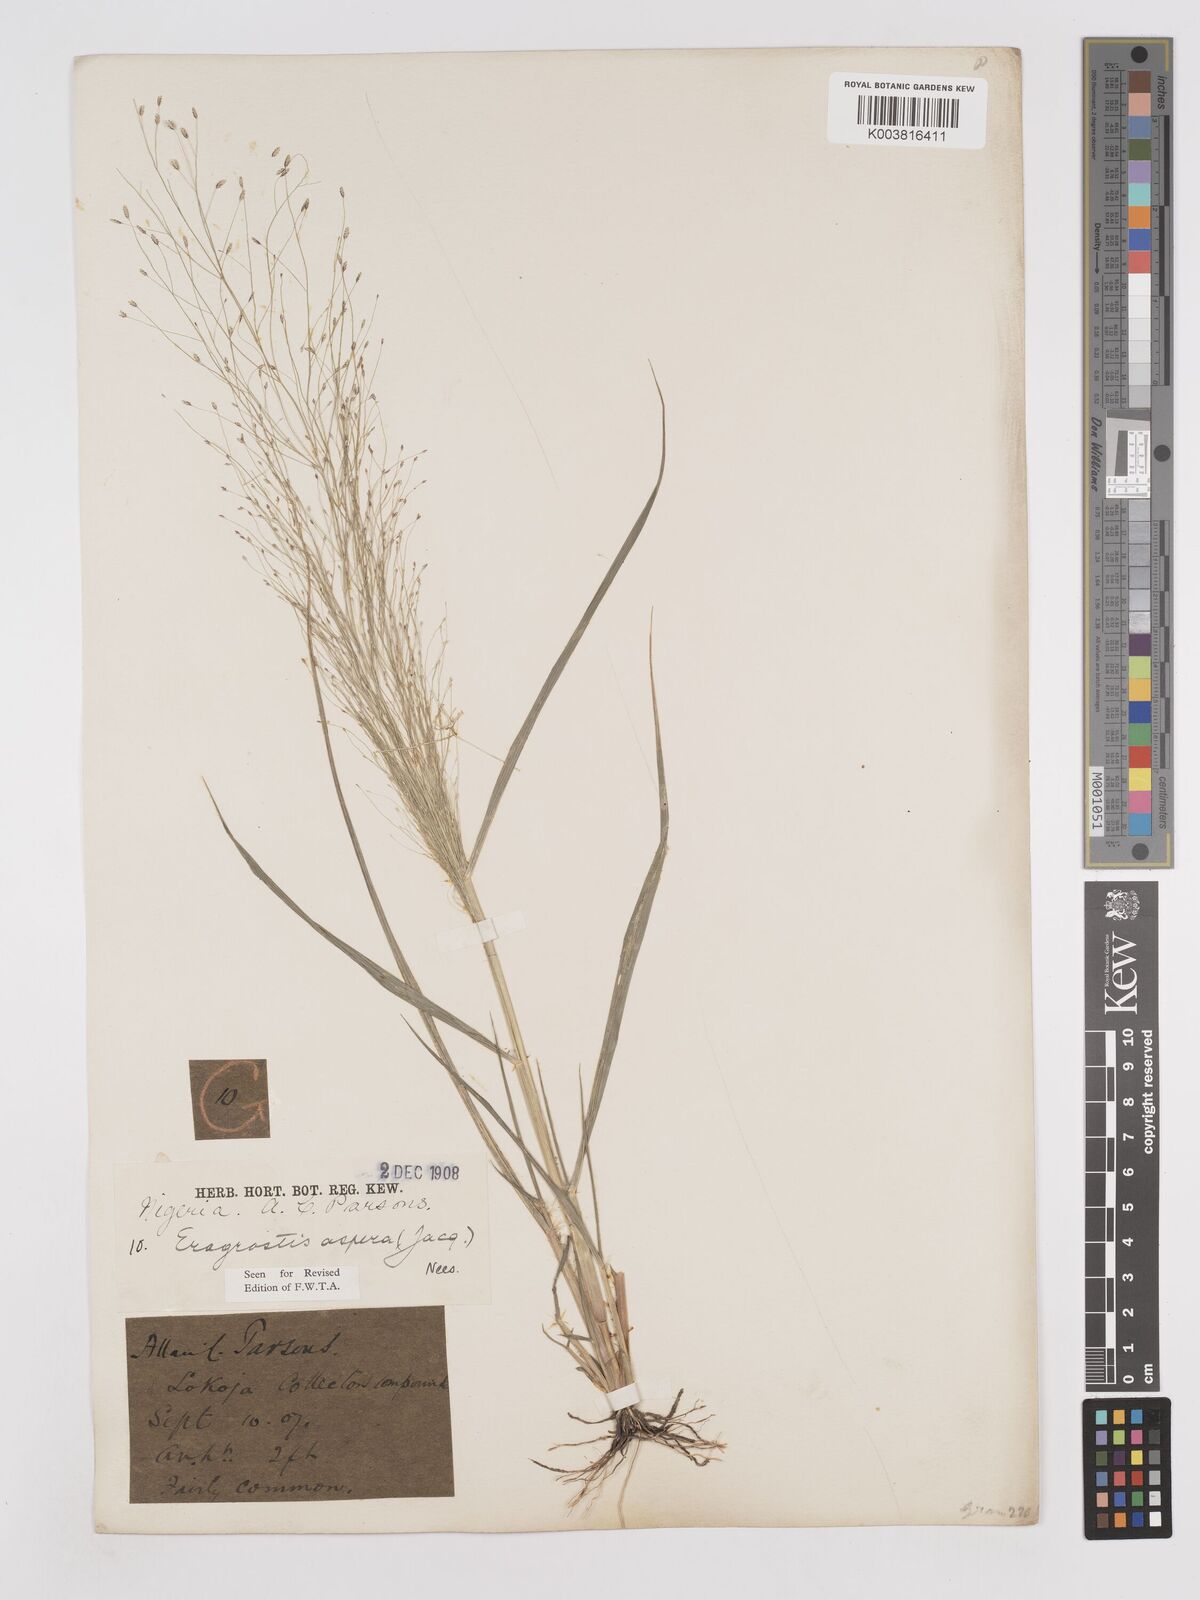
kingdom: Plantae
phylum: Tracheophyta
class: Liliopsida
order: Poales
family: Poaceae
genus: Eragrostis
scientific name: Eragrostis aspera
